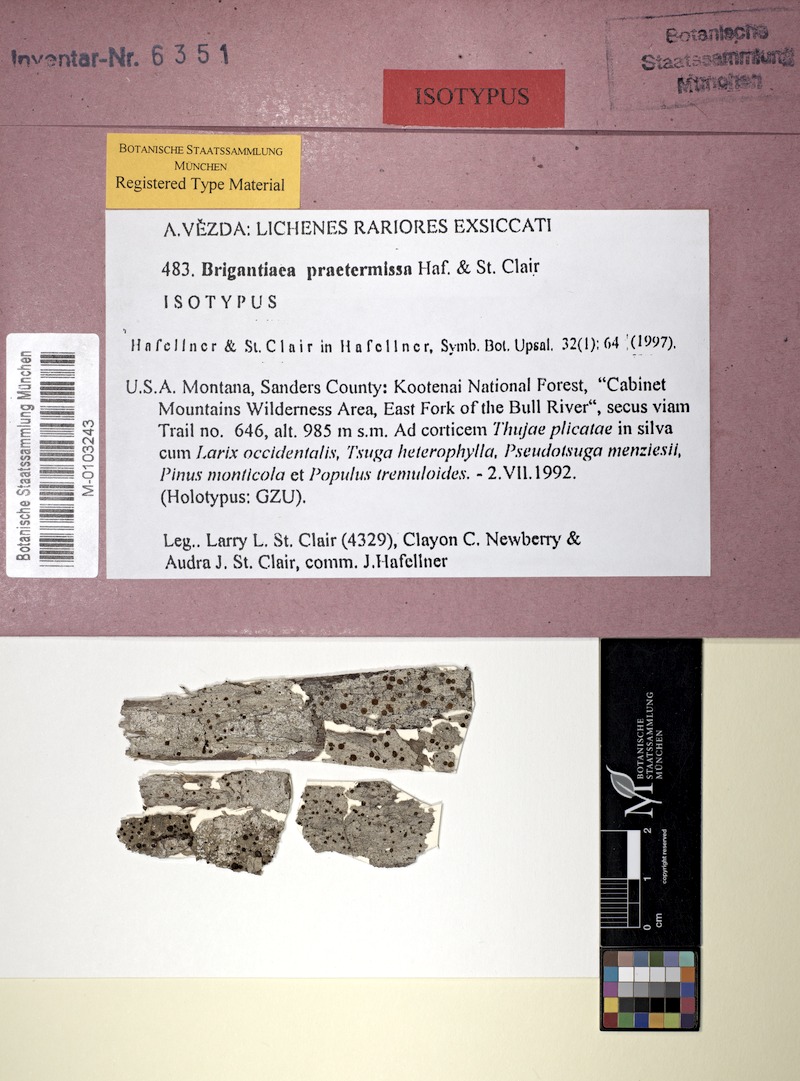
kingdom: Fungi
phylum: Ascomycota
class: Lecanoromycetes
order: Teloschistales
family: Brigantiaeaceae
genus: Brigantiaea
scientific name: Brigantiaea praetermissa
